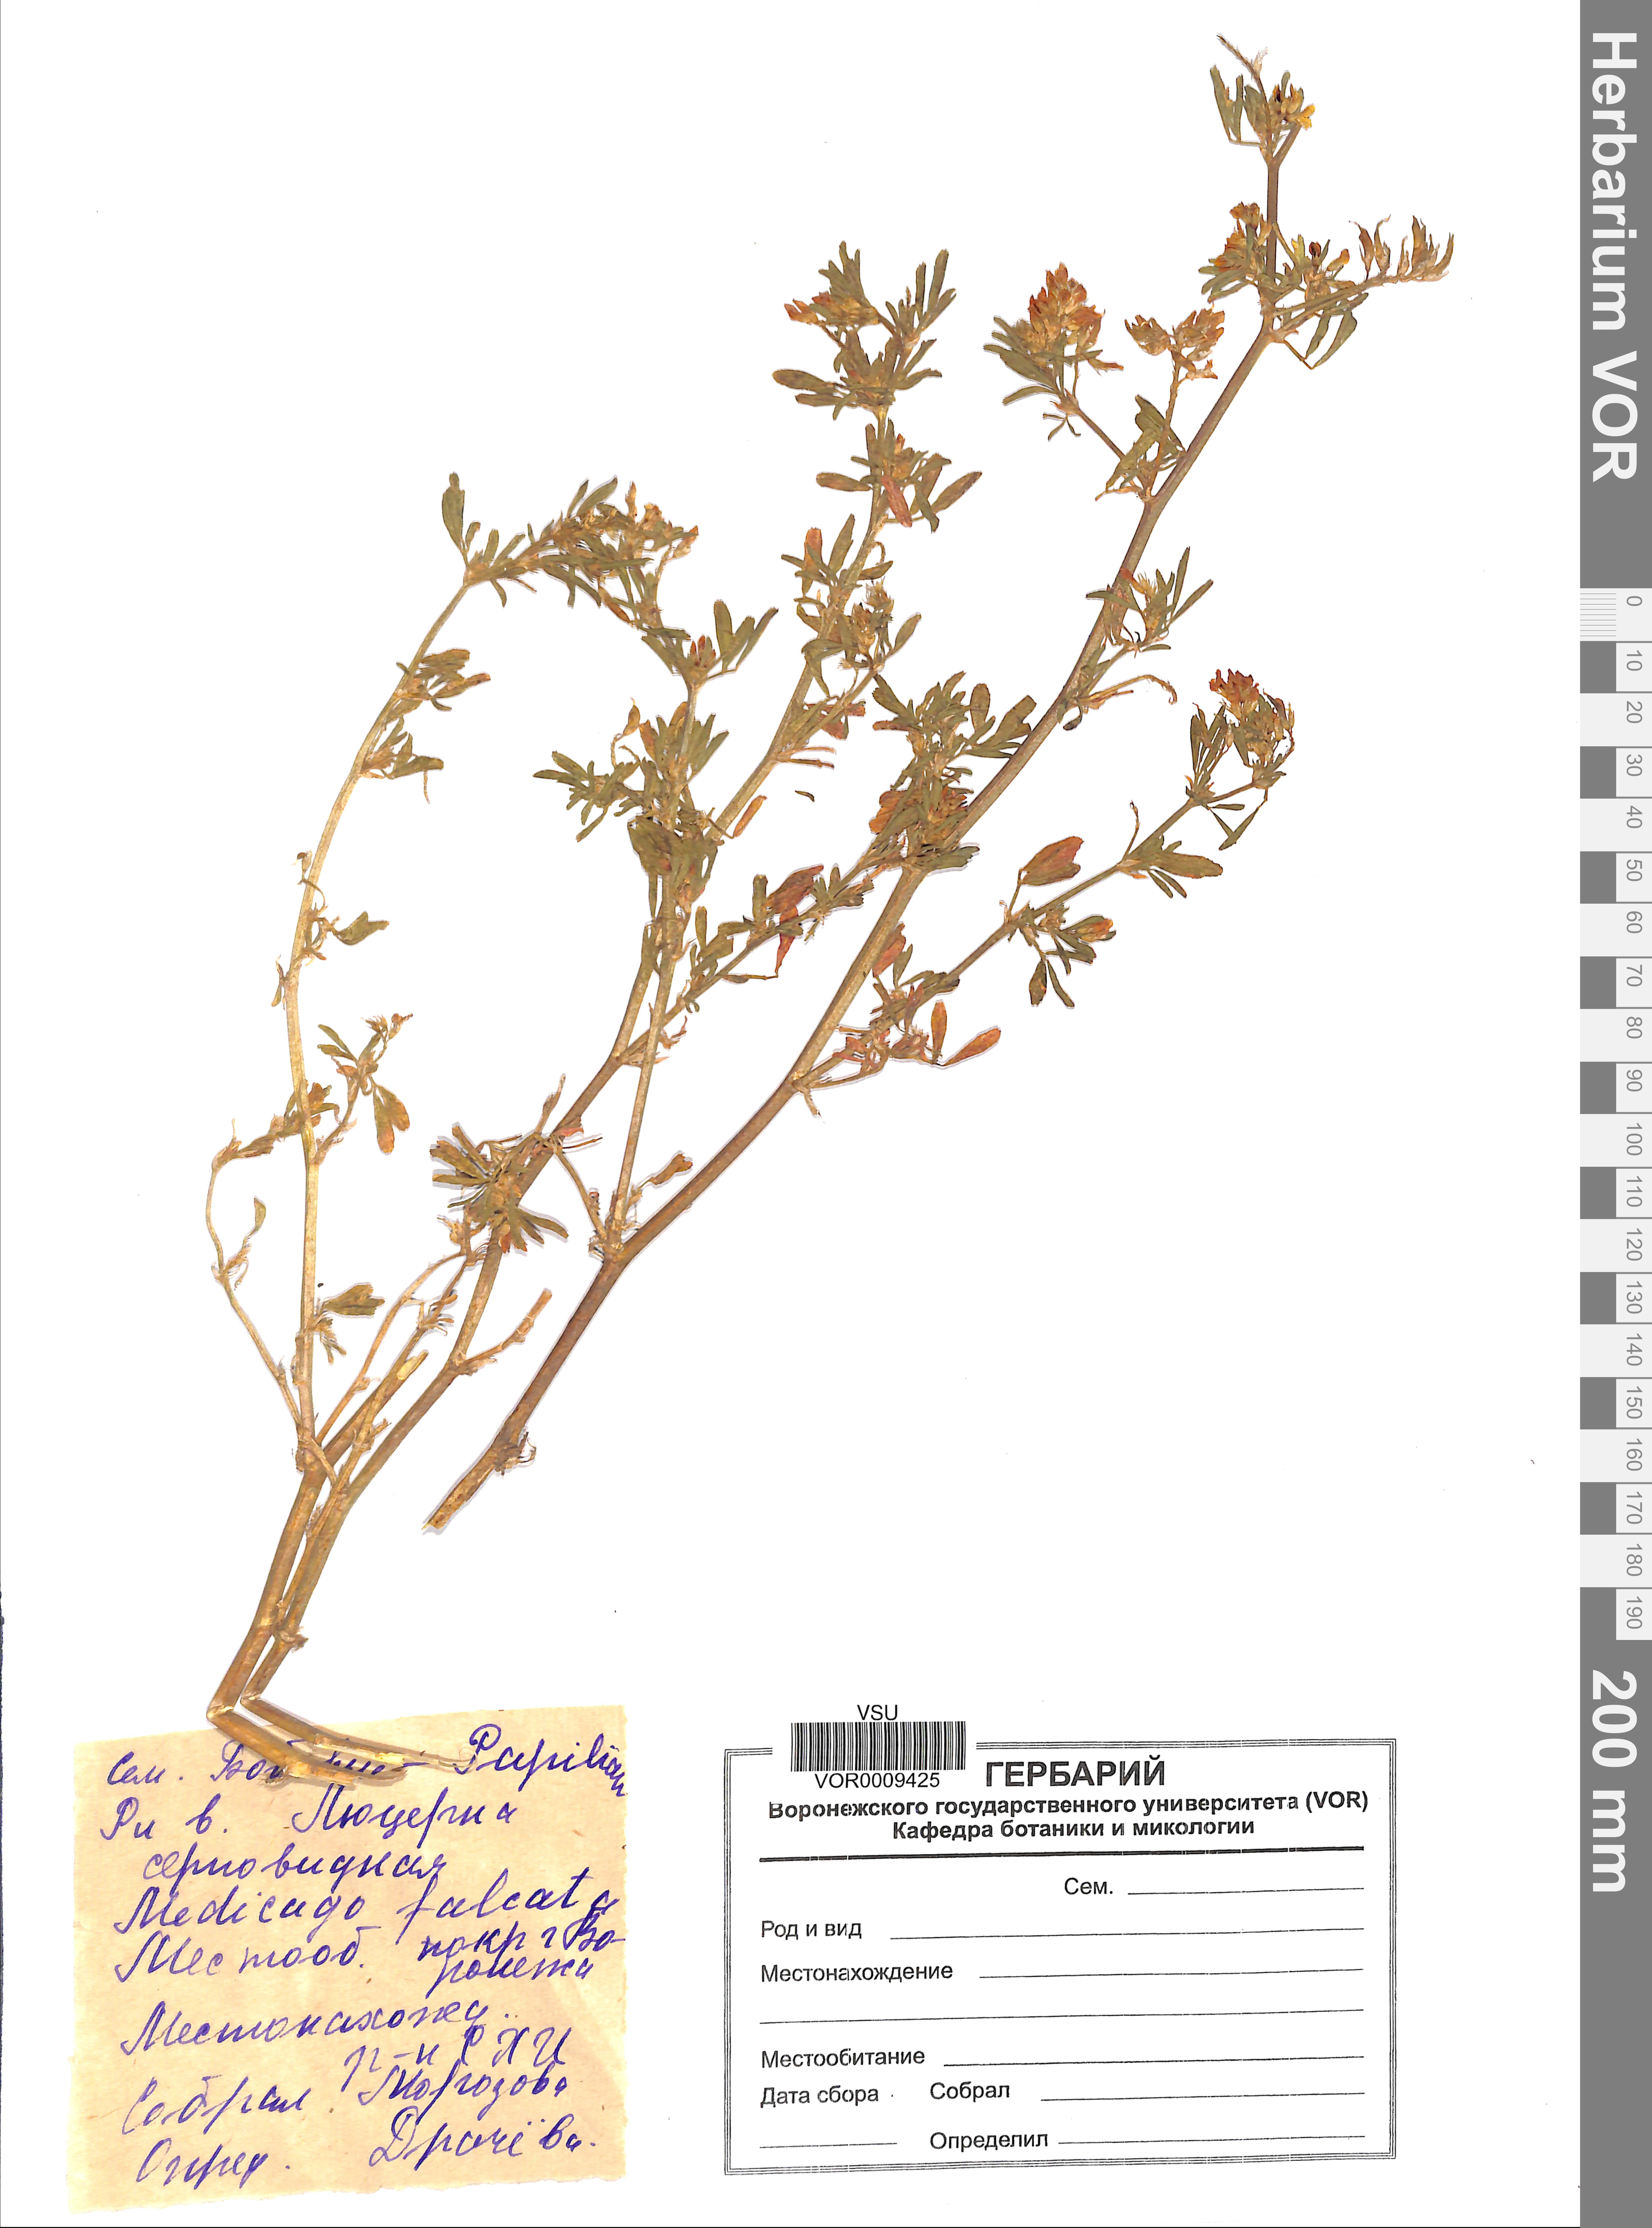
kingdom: Plantae
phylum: Tracheophyta
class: Magnoliopsida
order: Fabales
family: Fabaceae
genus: Medicago
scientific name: Medicago falcata
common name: Sickle medick
